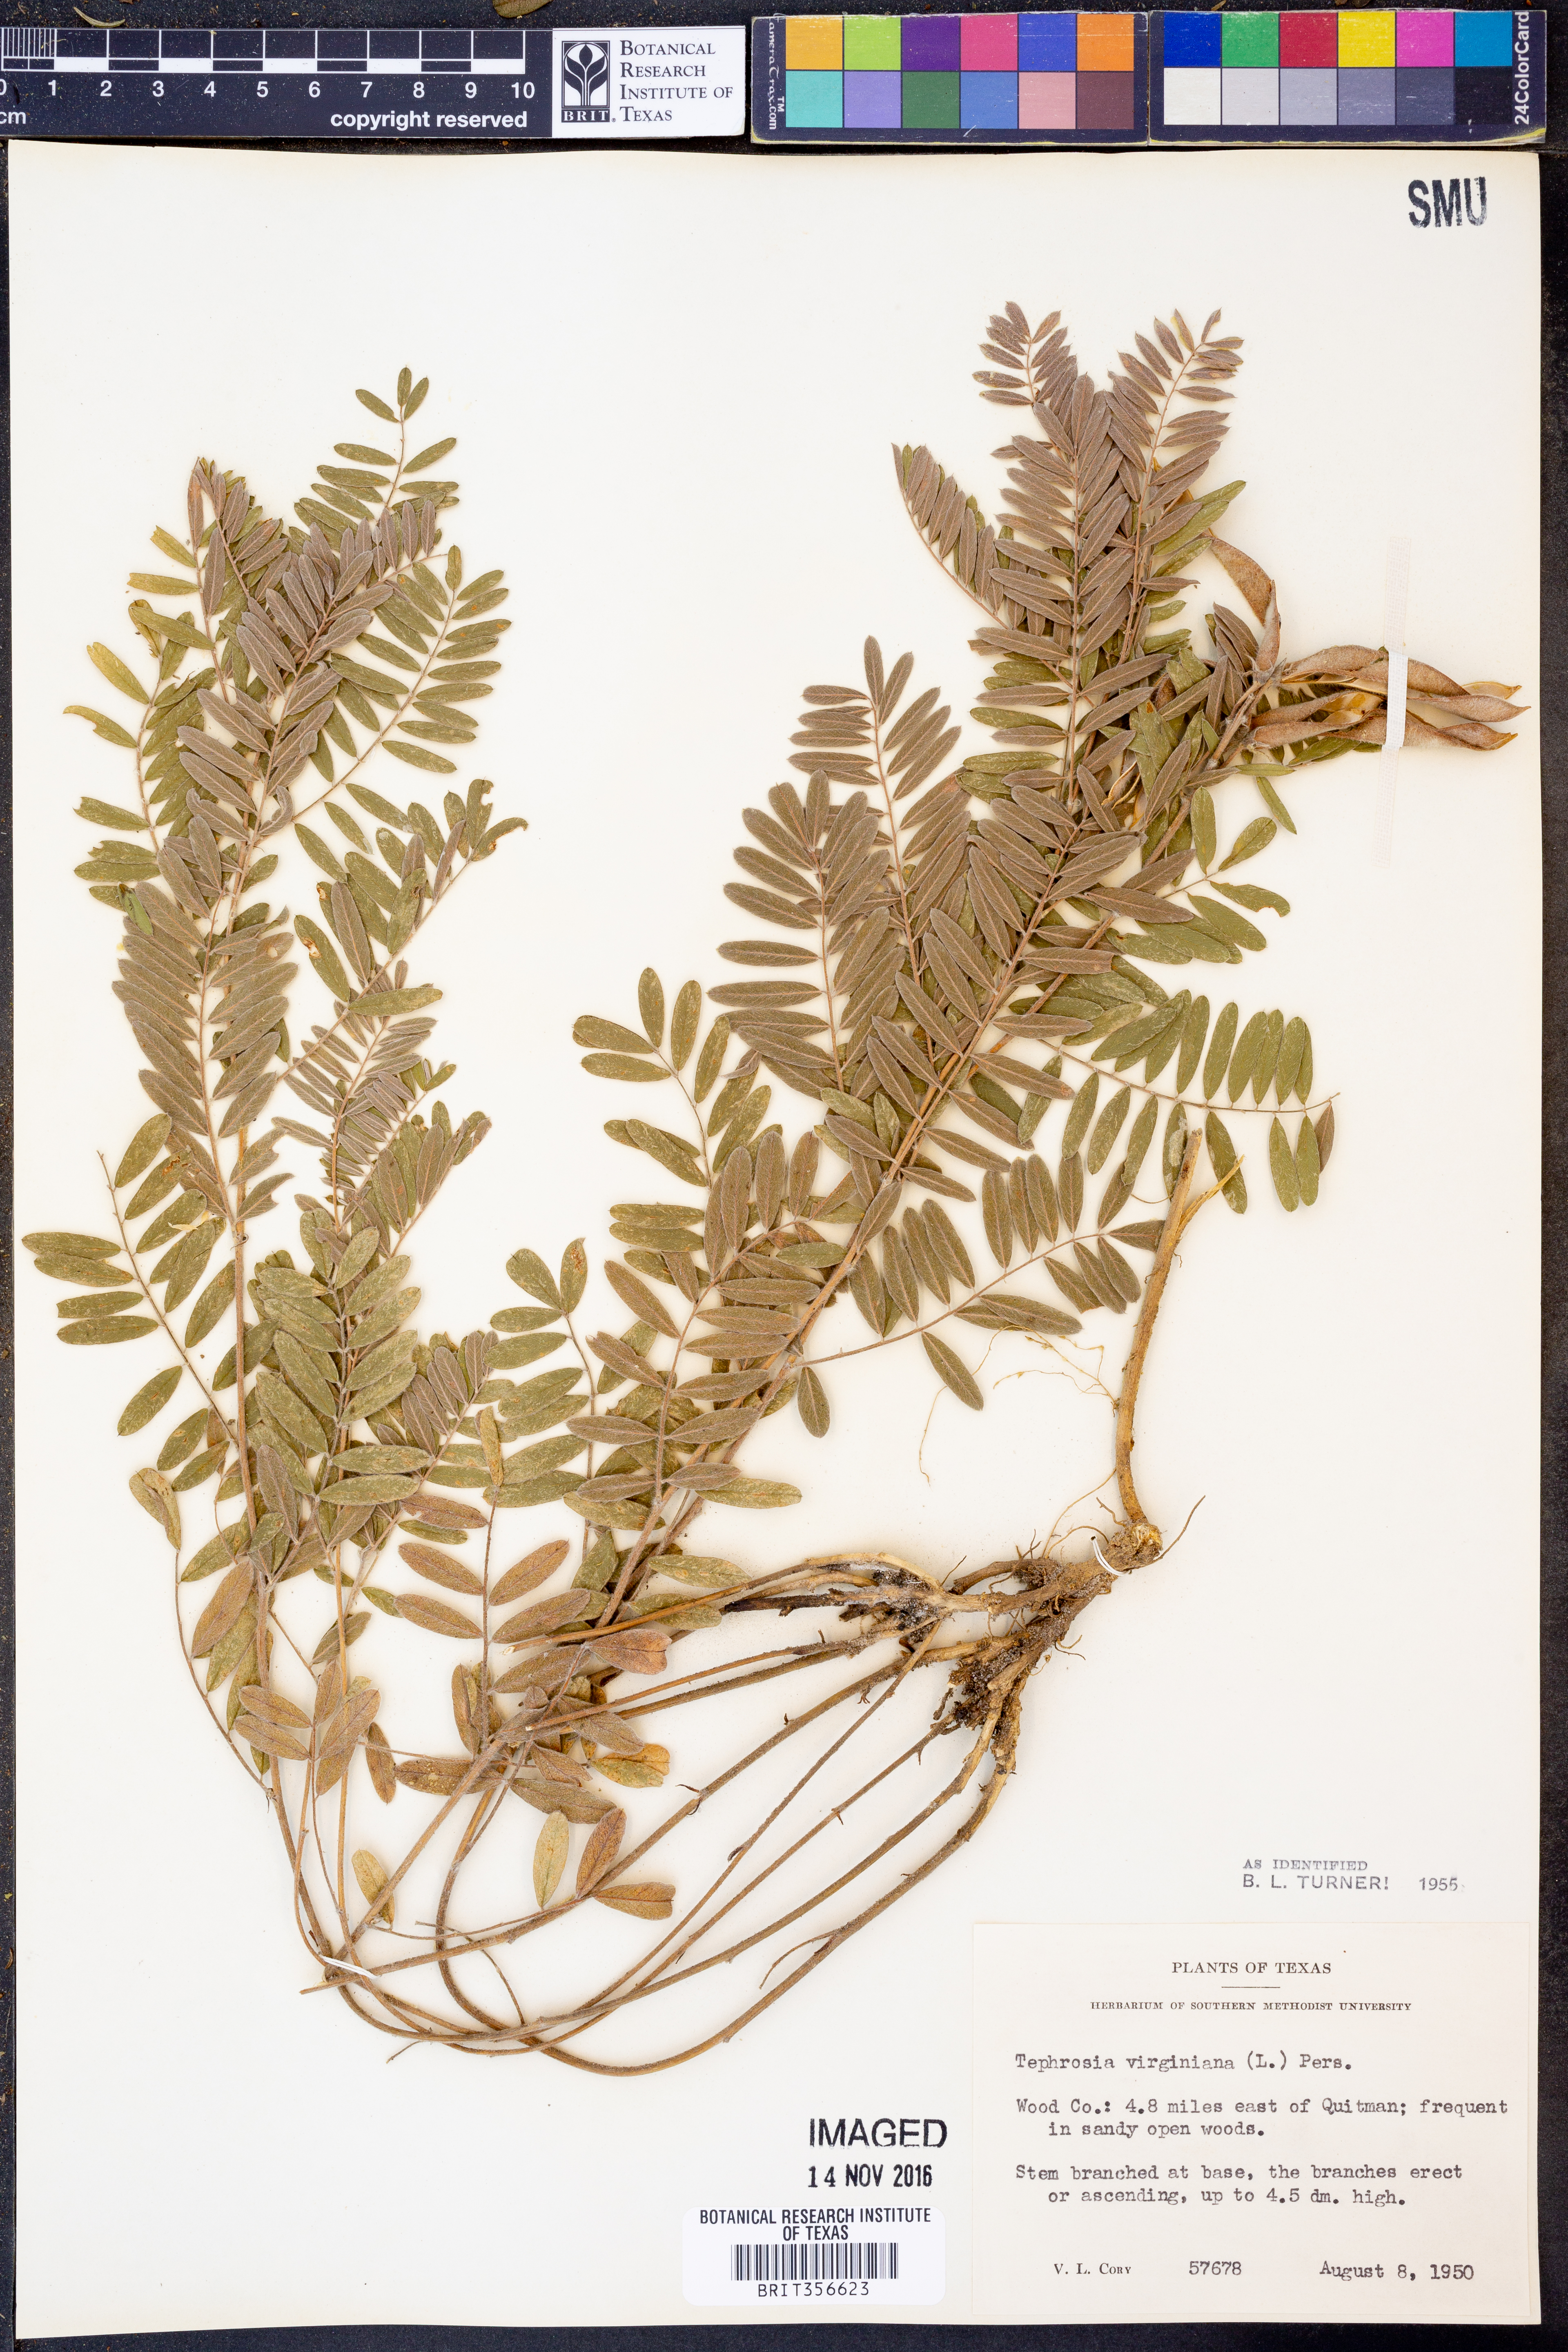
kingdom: Plantae
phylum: Tracheophyta
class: Magnoliopsida
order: Fabales
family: Fabaceae
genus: Tephrosia
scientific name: Tephrosia virginiana
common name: Rabbit-pea
